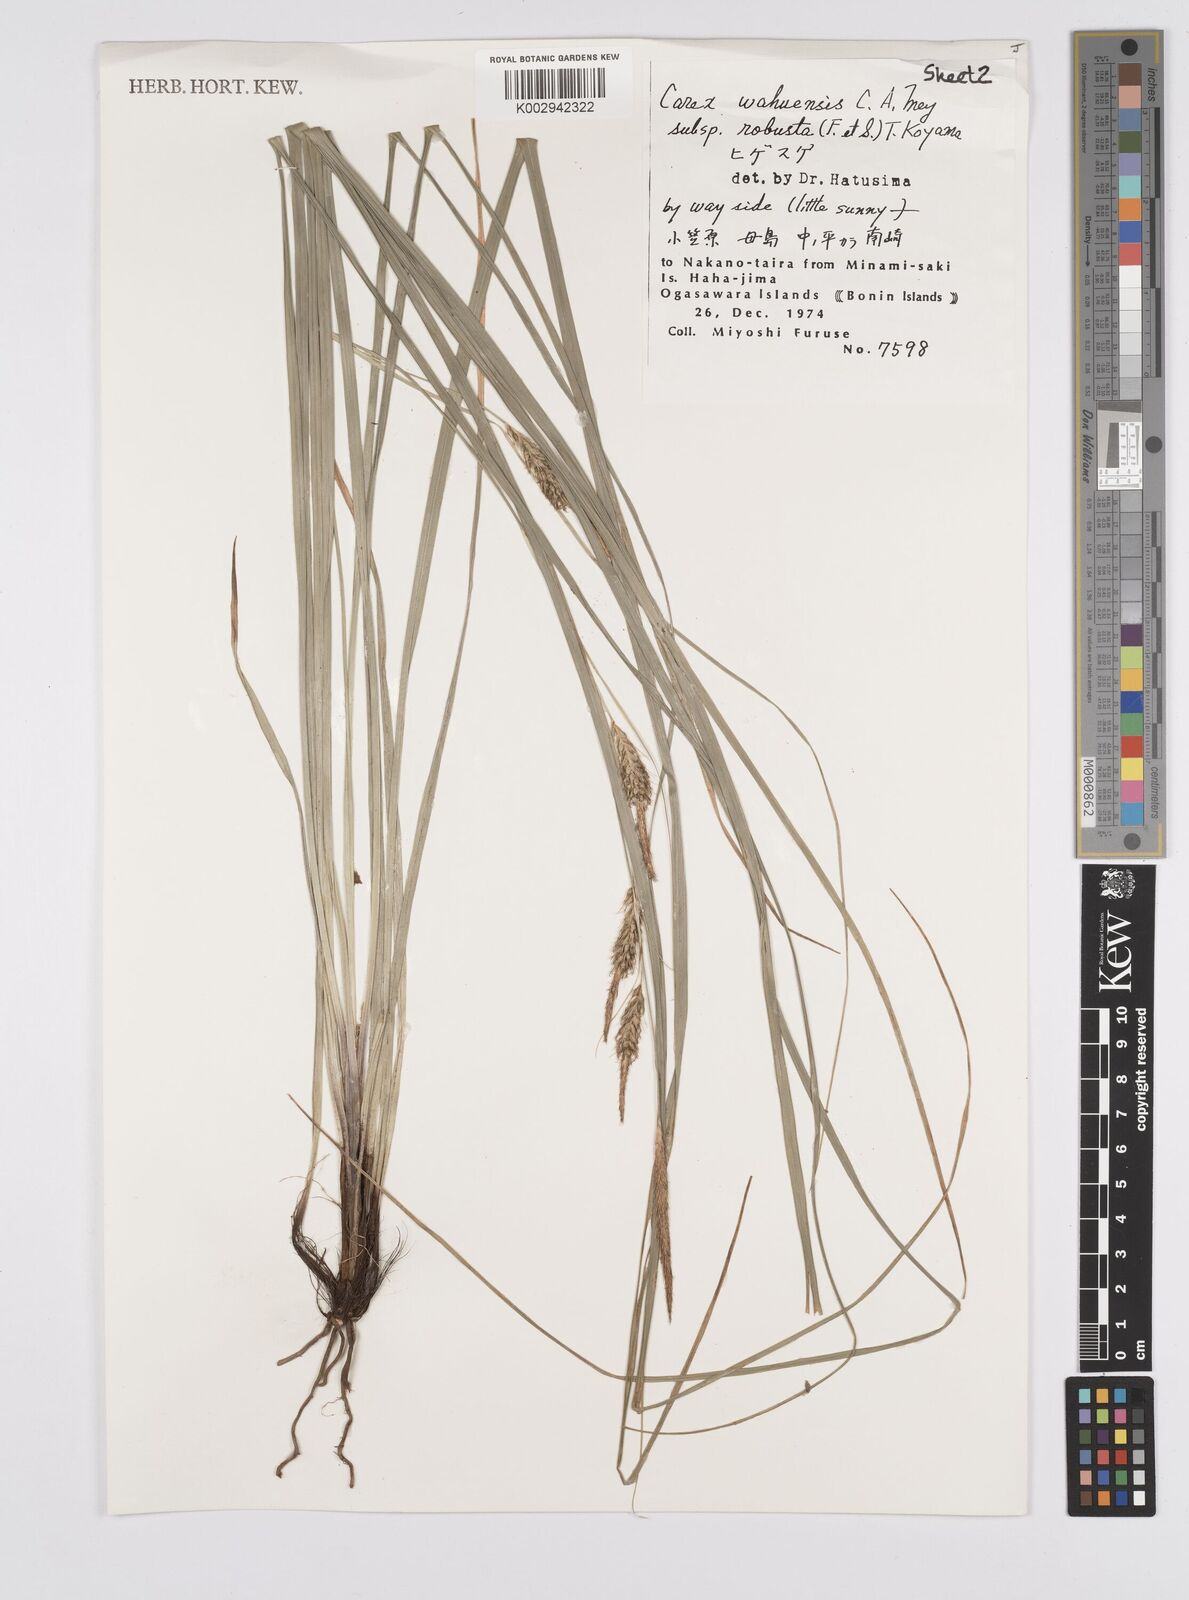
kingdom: Plantae
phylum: Tracheophyta
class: Liliopsida
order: Poales
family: Cyperaceae
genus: Carex
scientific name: Carex wahuensis
